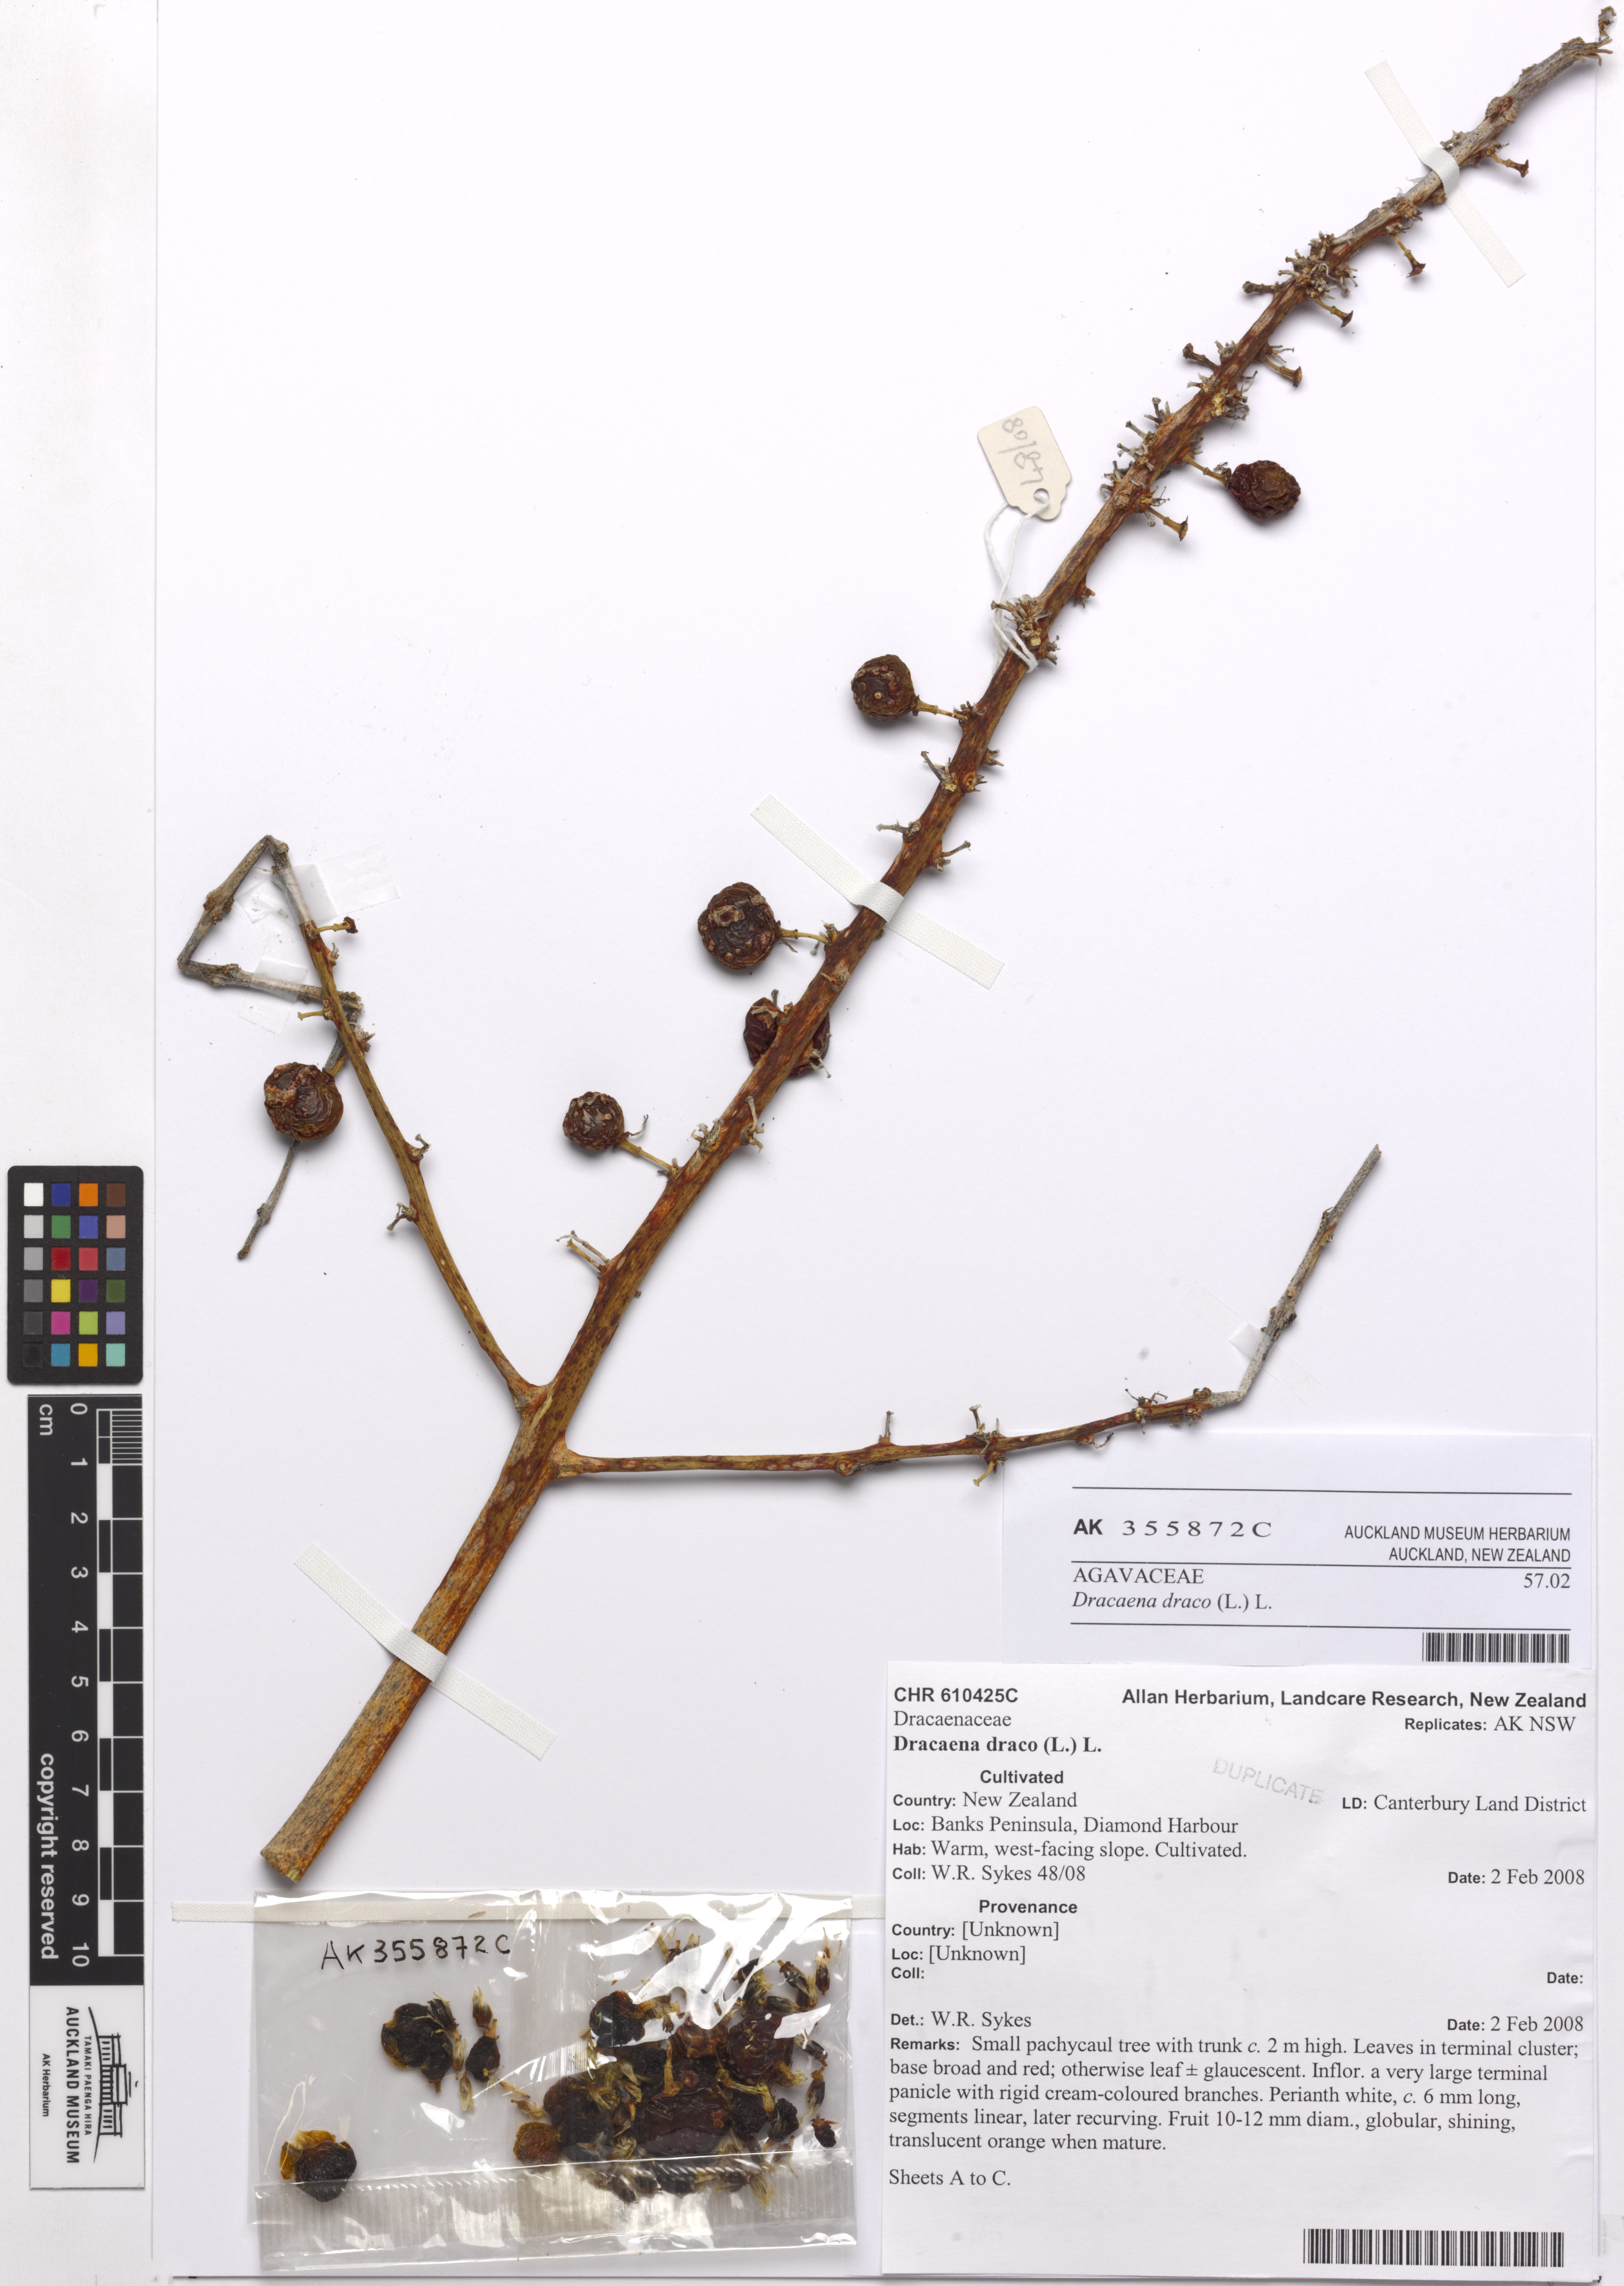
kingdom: Plantae
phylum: Tracheophyta
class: Liliopsida
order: Asparagales
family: Asparagaceae
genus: Dracaena
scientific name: Dracaena draco
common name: Canary island dragon tree
